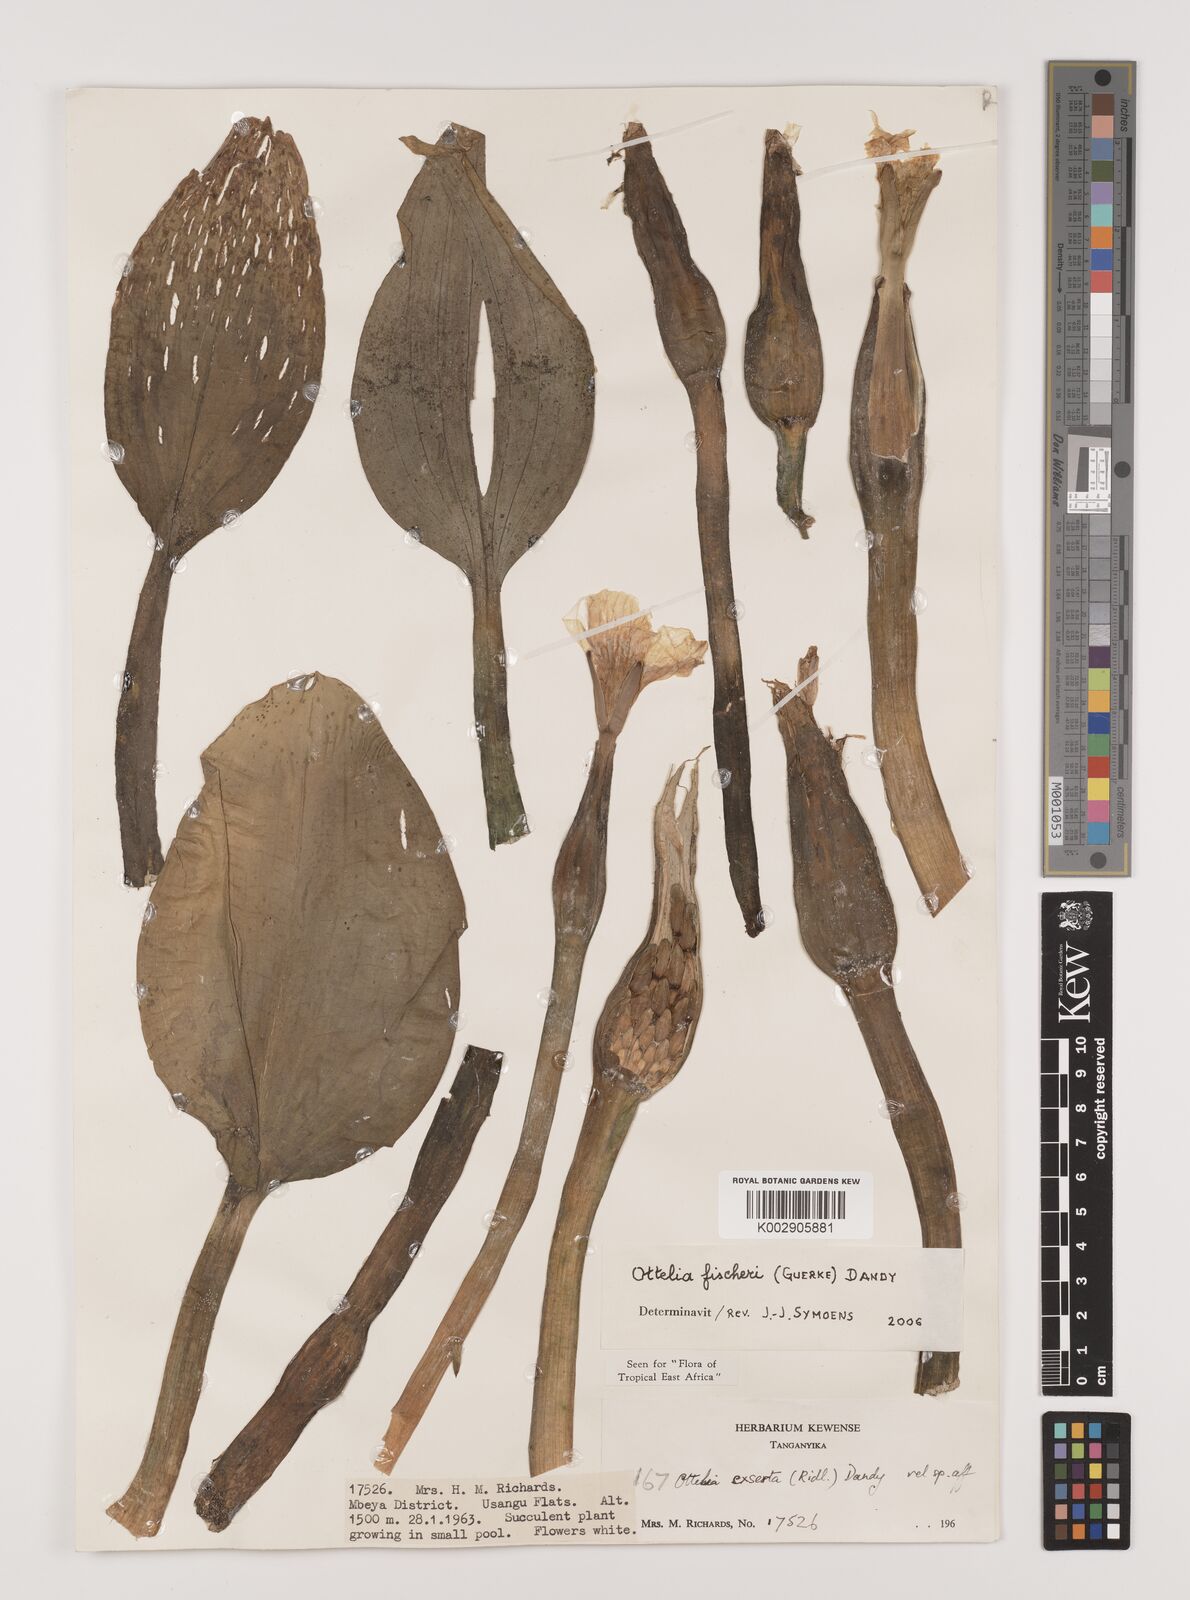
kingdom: Plantae
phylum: Tracheophyta
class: Liliopsida
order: Alismatales
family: Hydrocharitaceae
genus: Ottelia
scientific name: Ottelia fischeri
